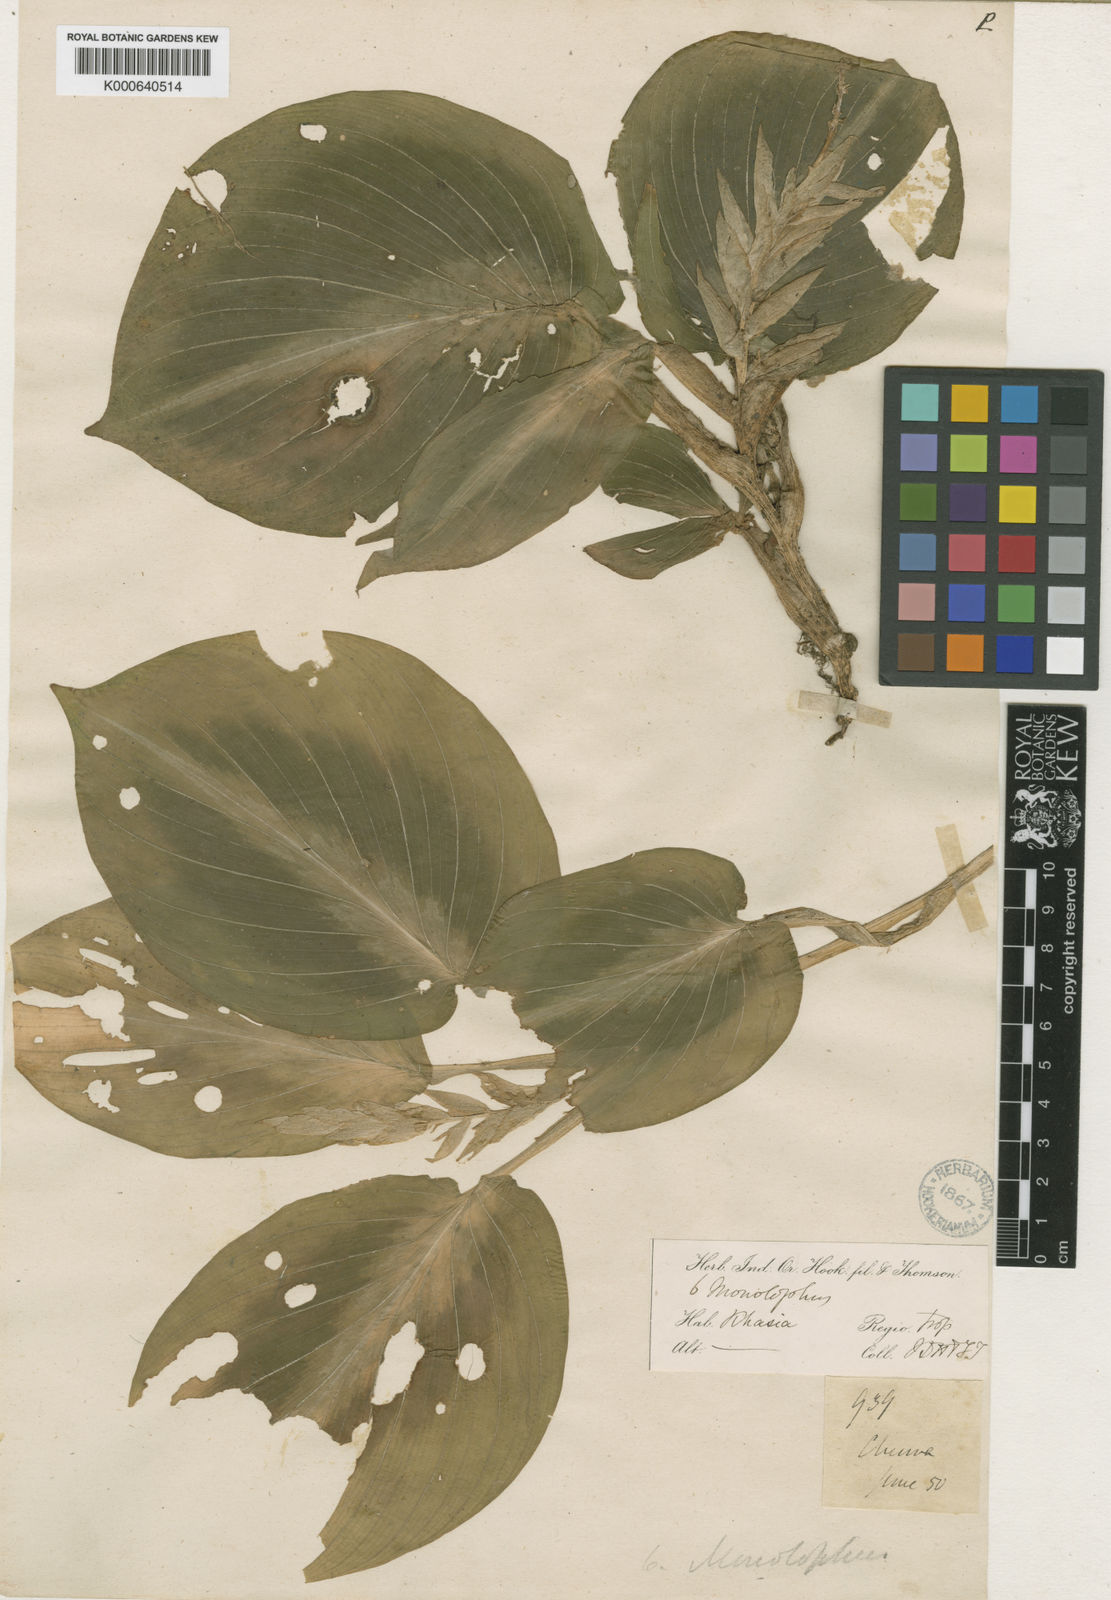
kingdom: Plantae
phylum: Tracheophyta
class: Liliopsida
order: Zingiberales
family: Zingiberaceae
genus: Boesenbergia
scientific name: Boesenbergia tiliifolia
